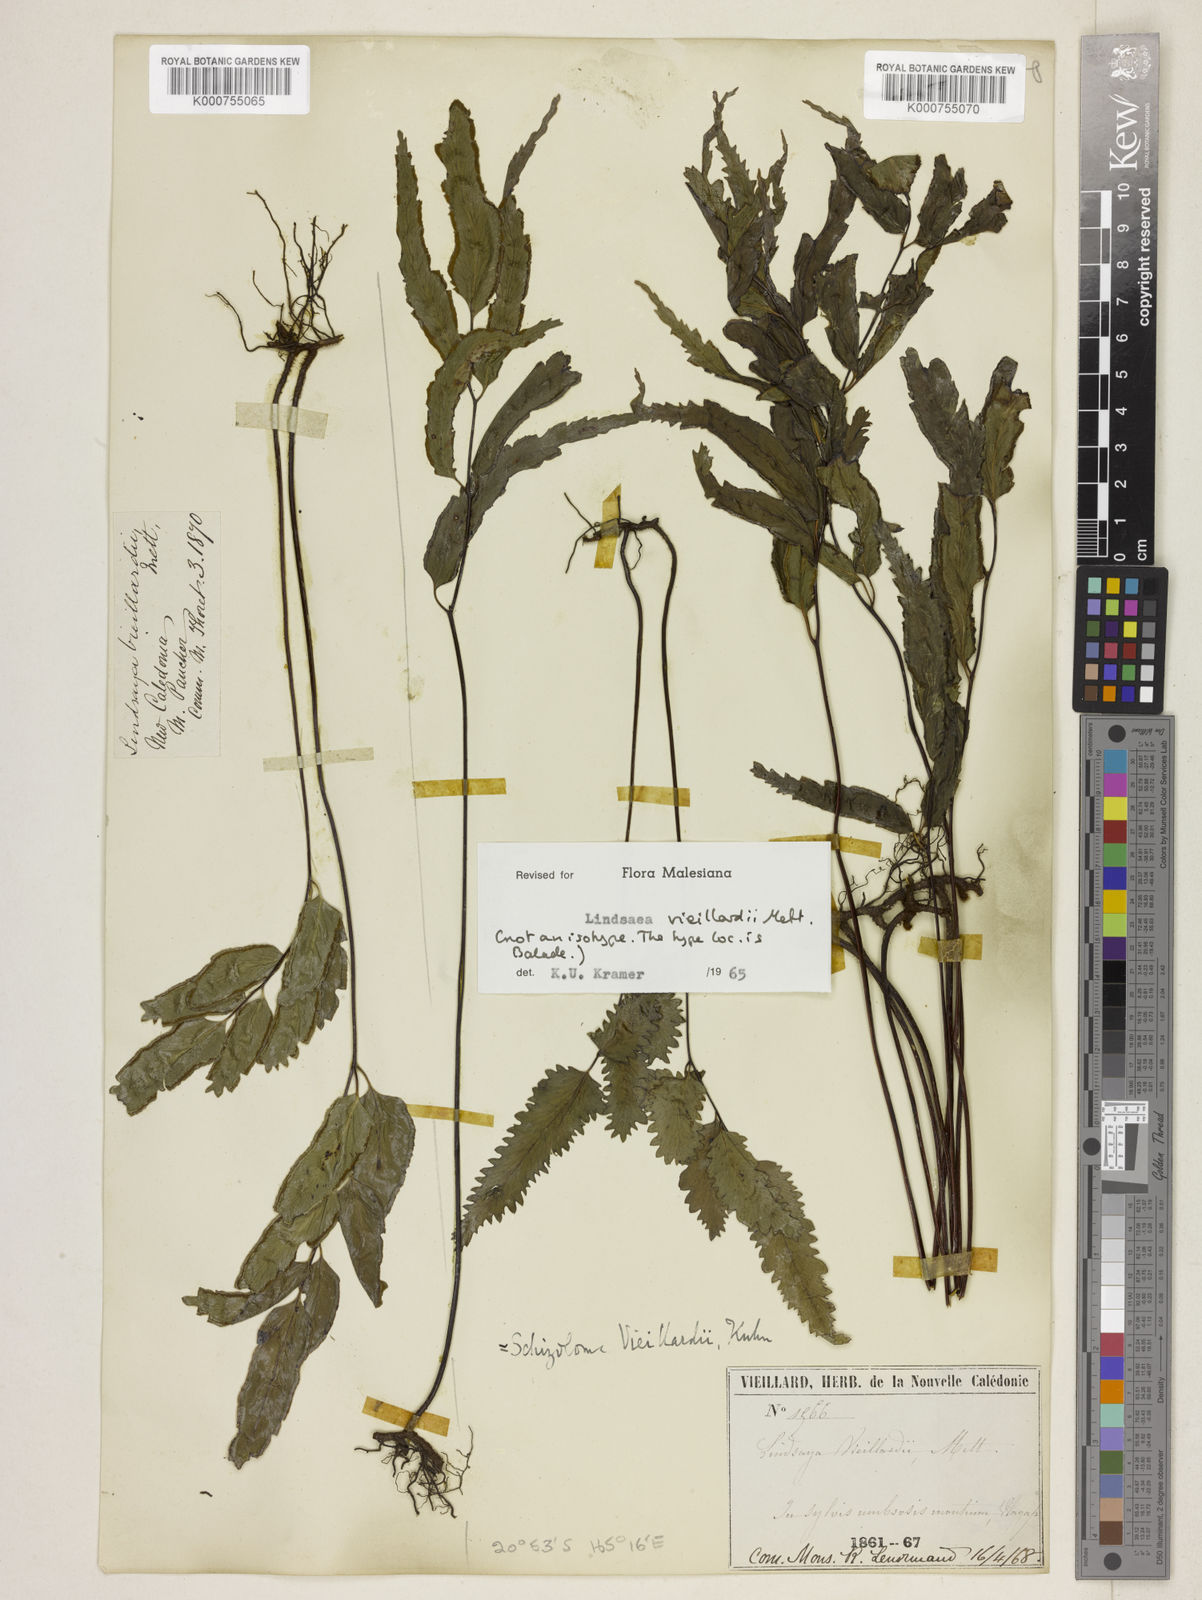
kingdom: Plantae
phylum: Tracheophyta
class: Polypodiopsida
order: Polypodiales
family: Lindsaeaceae
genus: Lindsaea
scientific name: Lindsaea vieillardii
